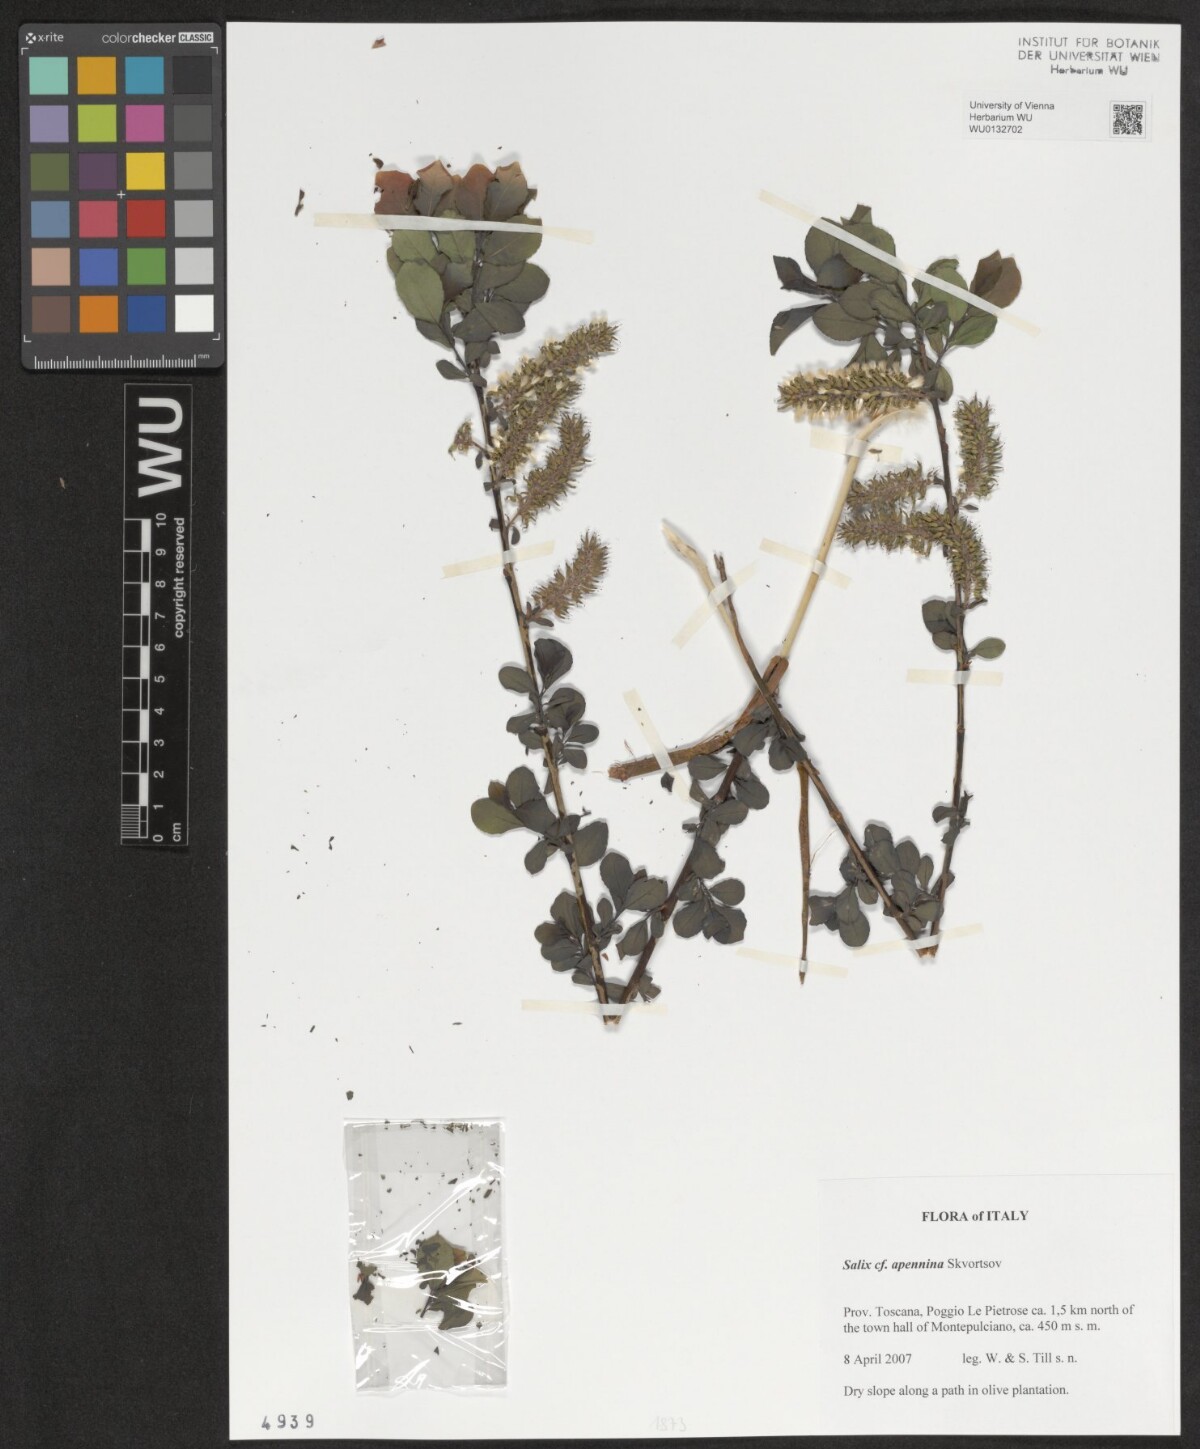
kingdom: Plantae
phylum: Tracheophyta
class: Magnoliopsida
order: Malpighiales
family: Salicaceae
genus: Salix
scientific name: Salix apennina
